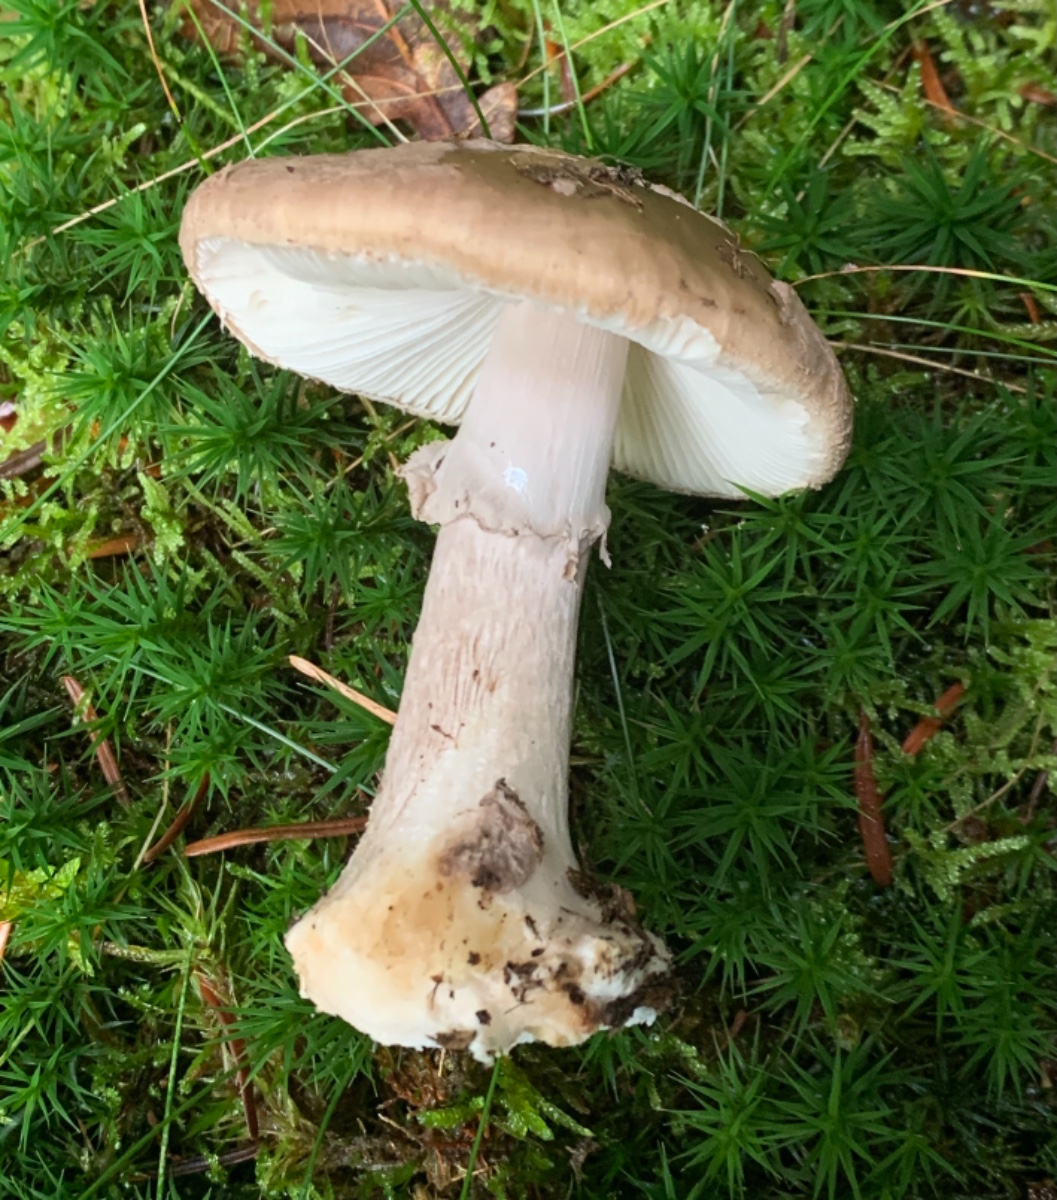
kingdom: Fungi
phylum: Basidiomycota
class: Agaricomycetes
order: Agaricales
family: Amanitaceae
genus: Amanita
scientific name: Amanita porphyria
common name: porfyr-fluesvamp
